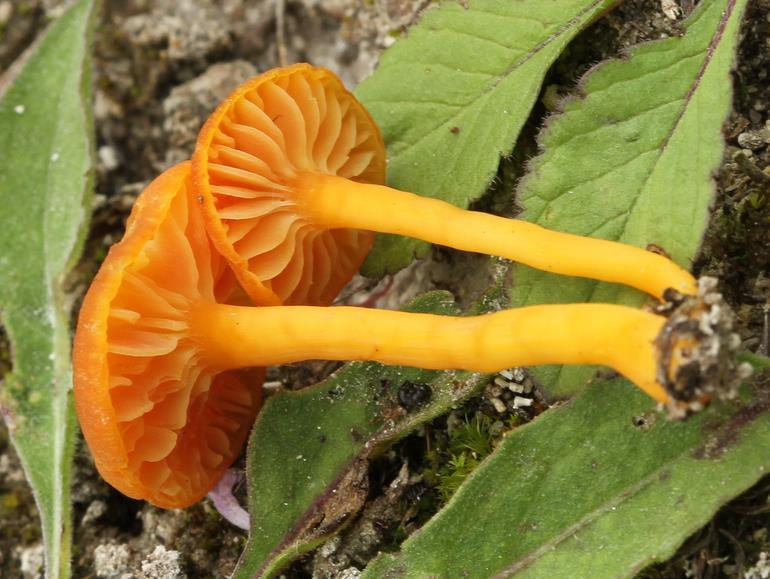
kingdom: Fungi
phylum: Basidiomycota
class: Agaricomycetes
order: Agaricales
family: Hygrophoraceae
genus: Hygrocybe
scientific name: Hygrocybe calciphila
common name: kalk-vokshat
